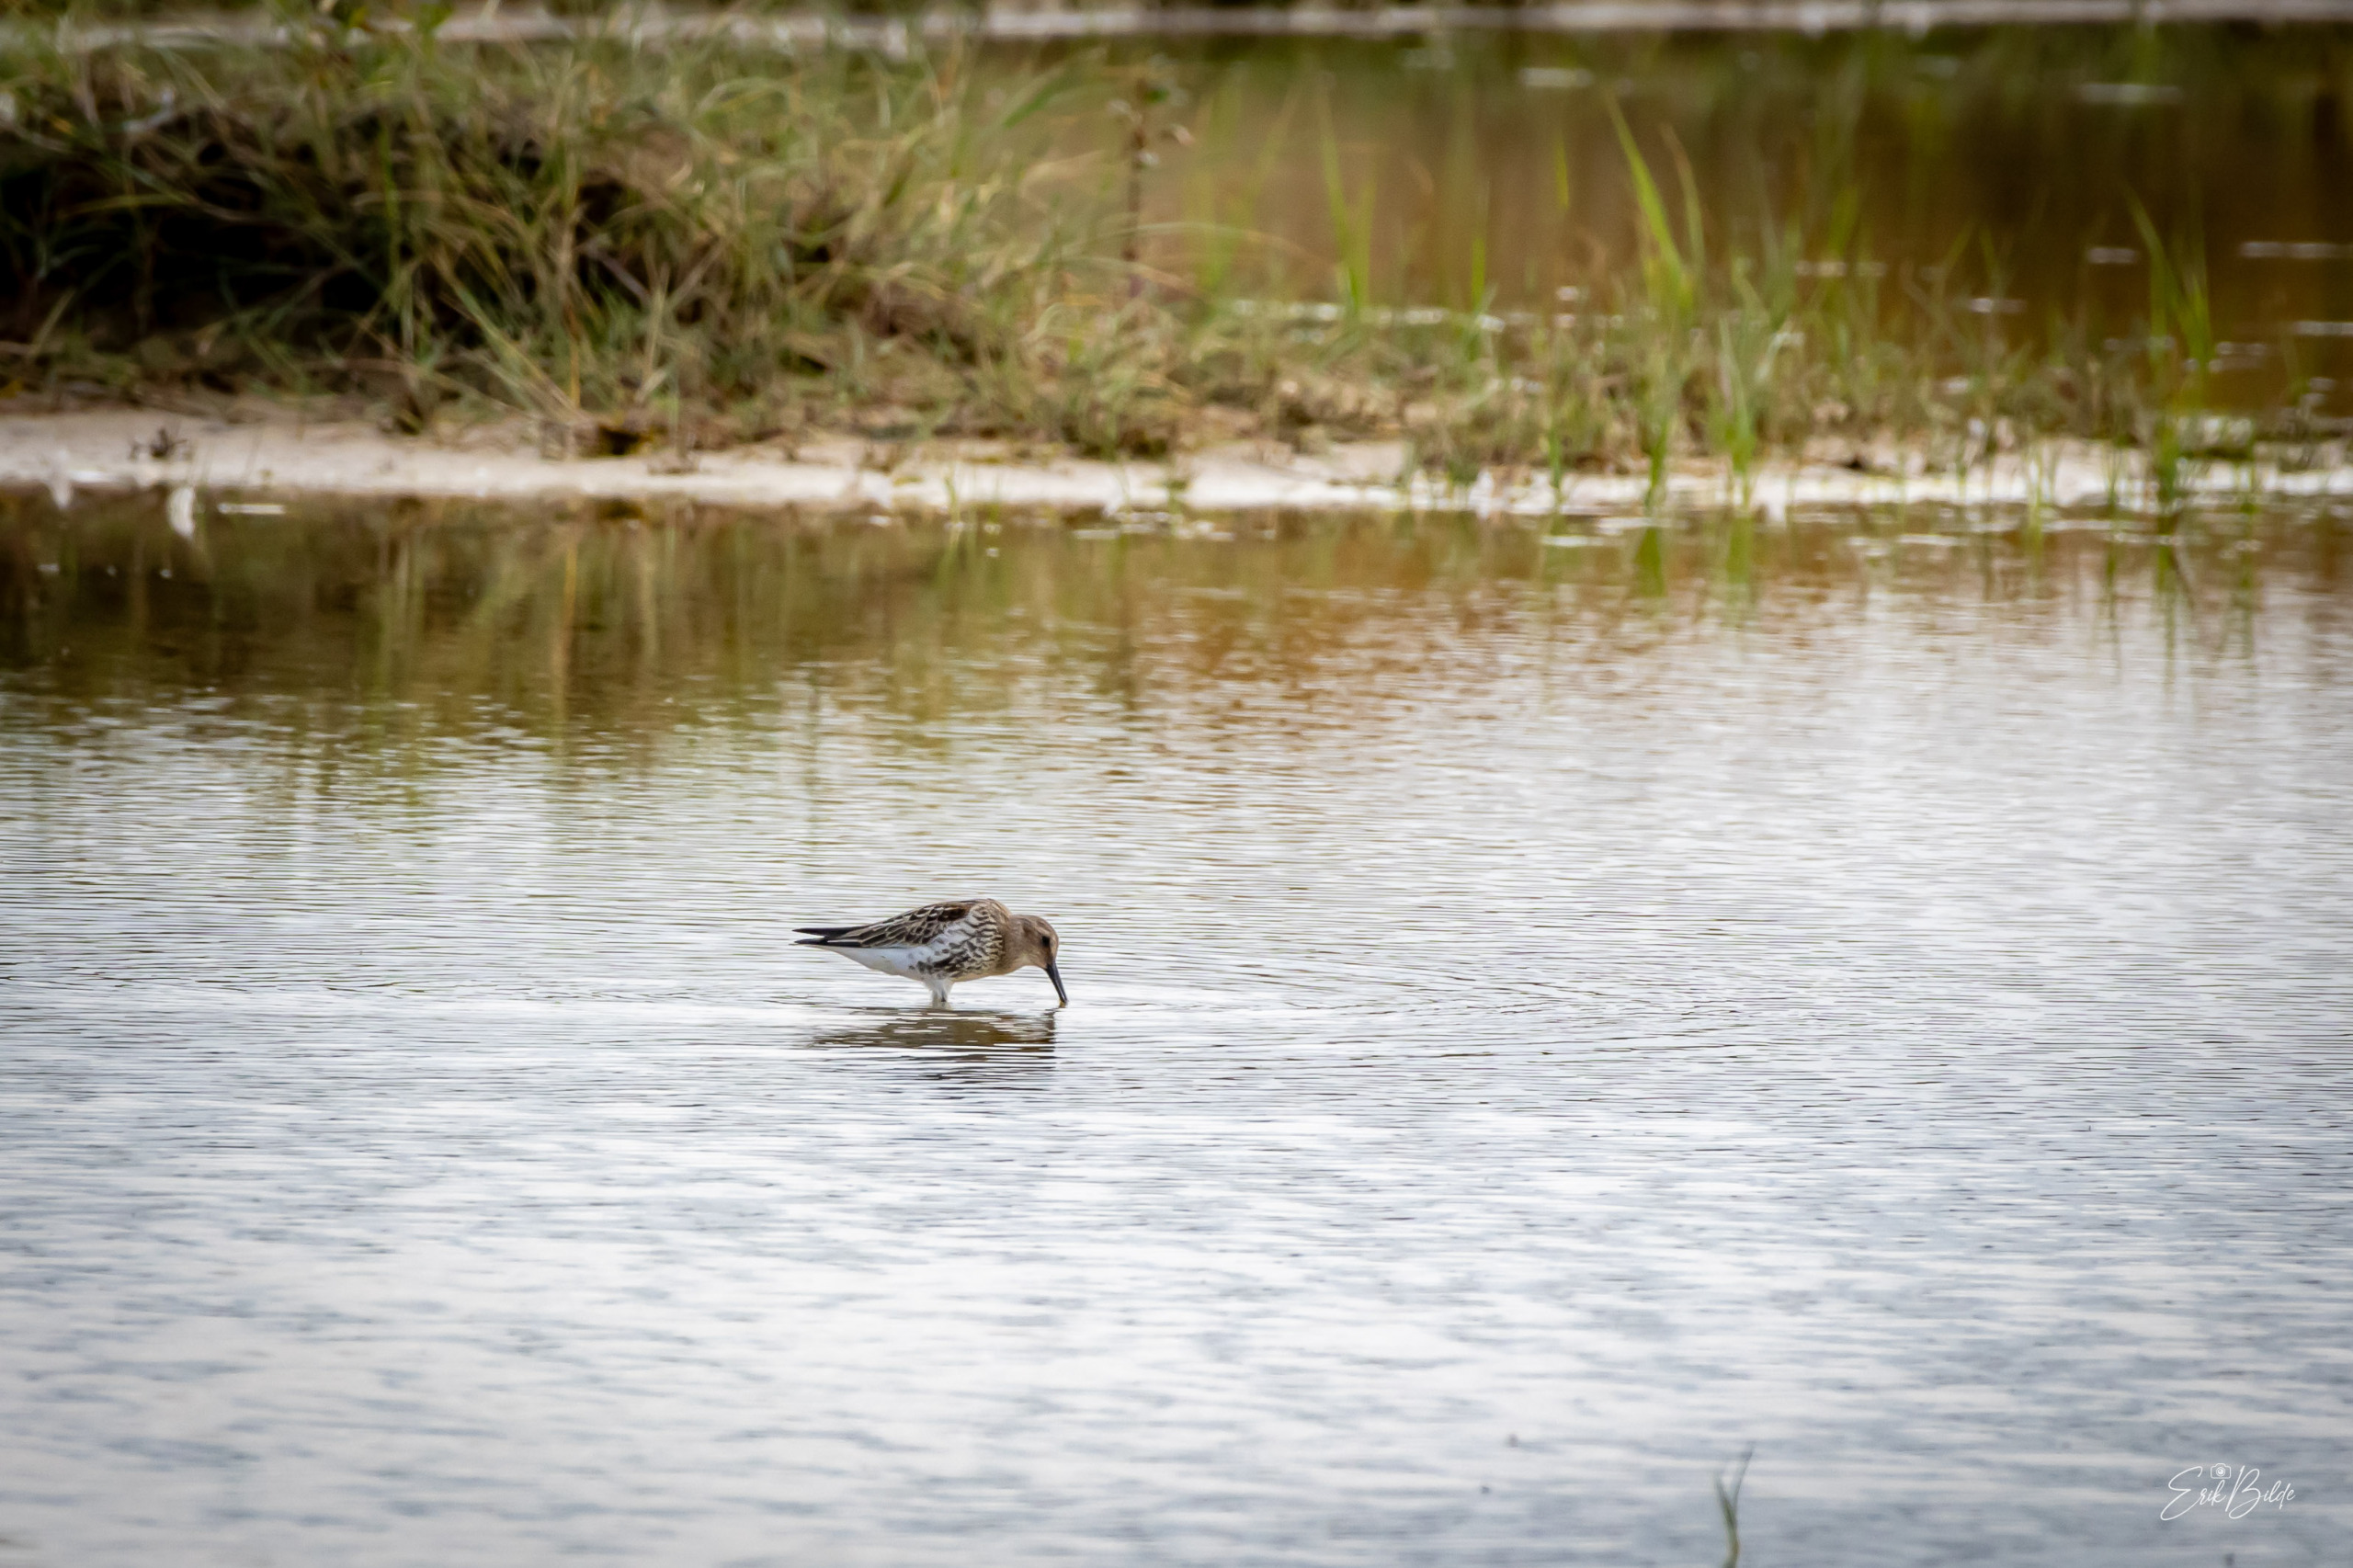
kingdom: Animalia
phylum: Chordata
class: Aves
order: Charadriiformes
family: Scolopacidae
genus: Calidris
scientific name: Calidris alpina
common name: Almindelig ryle
